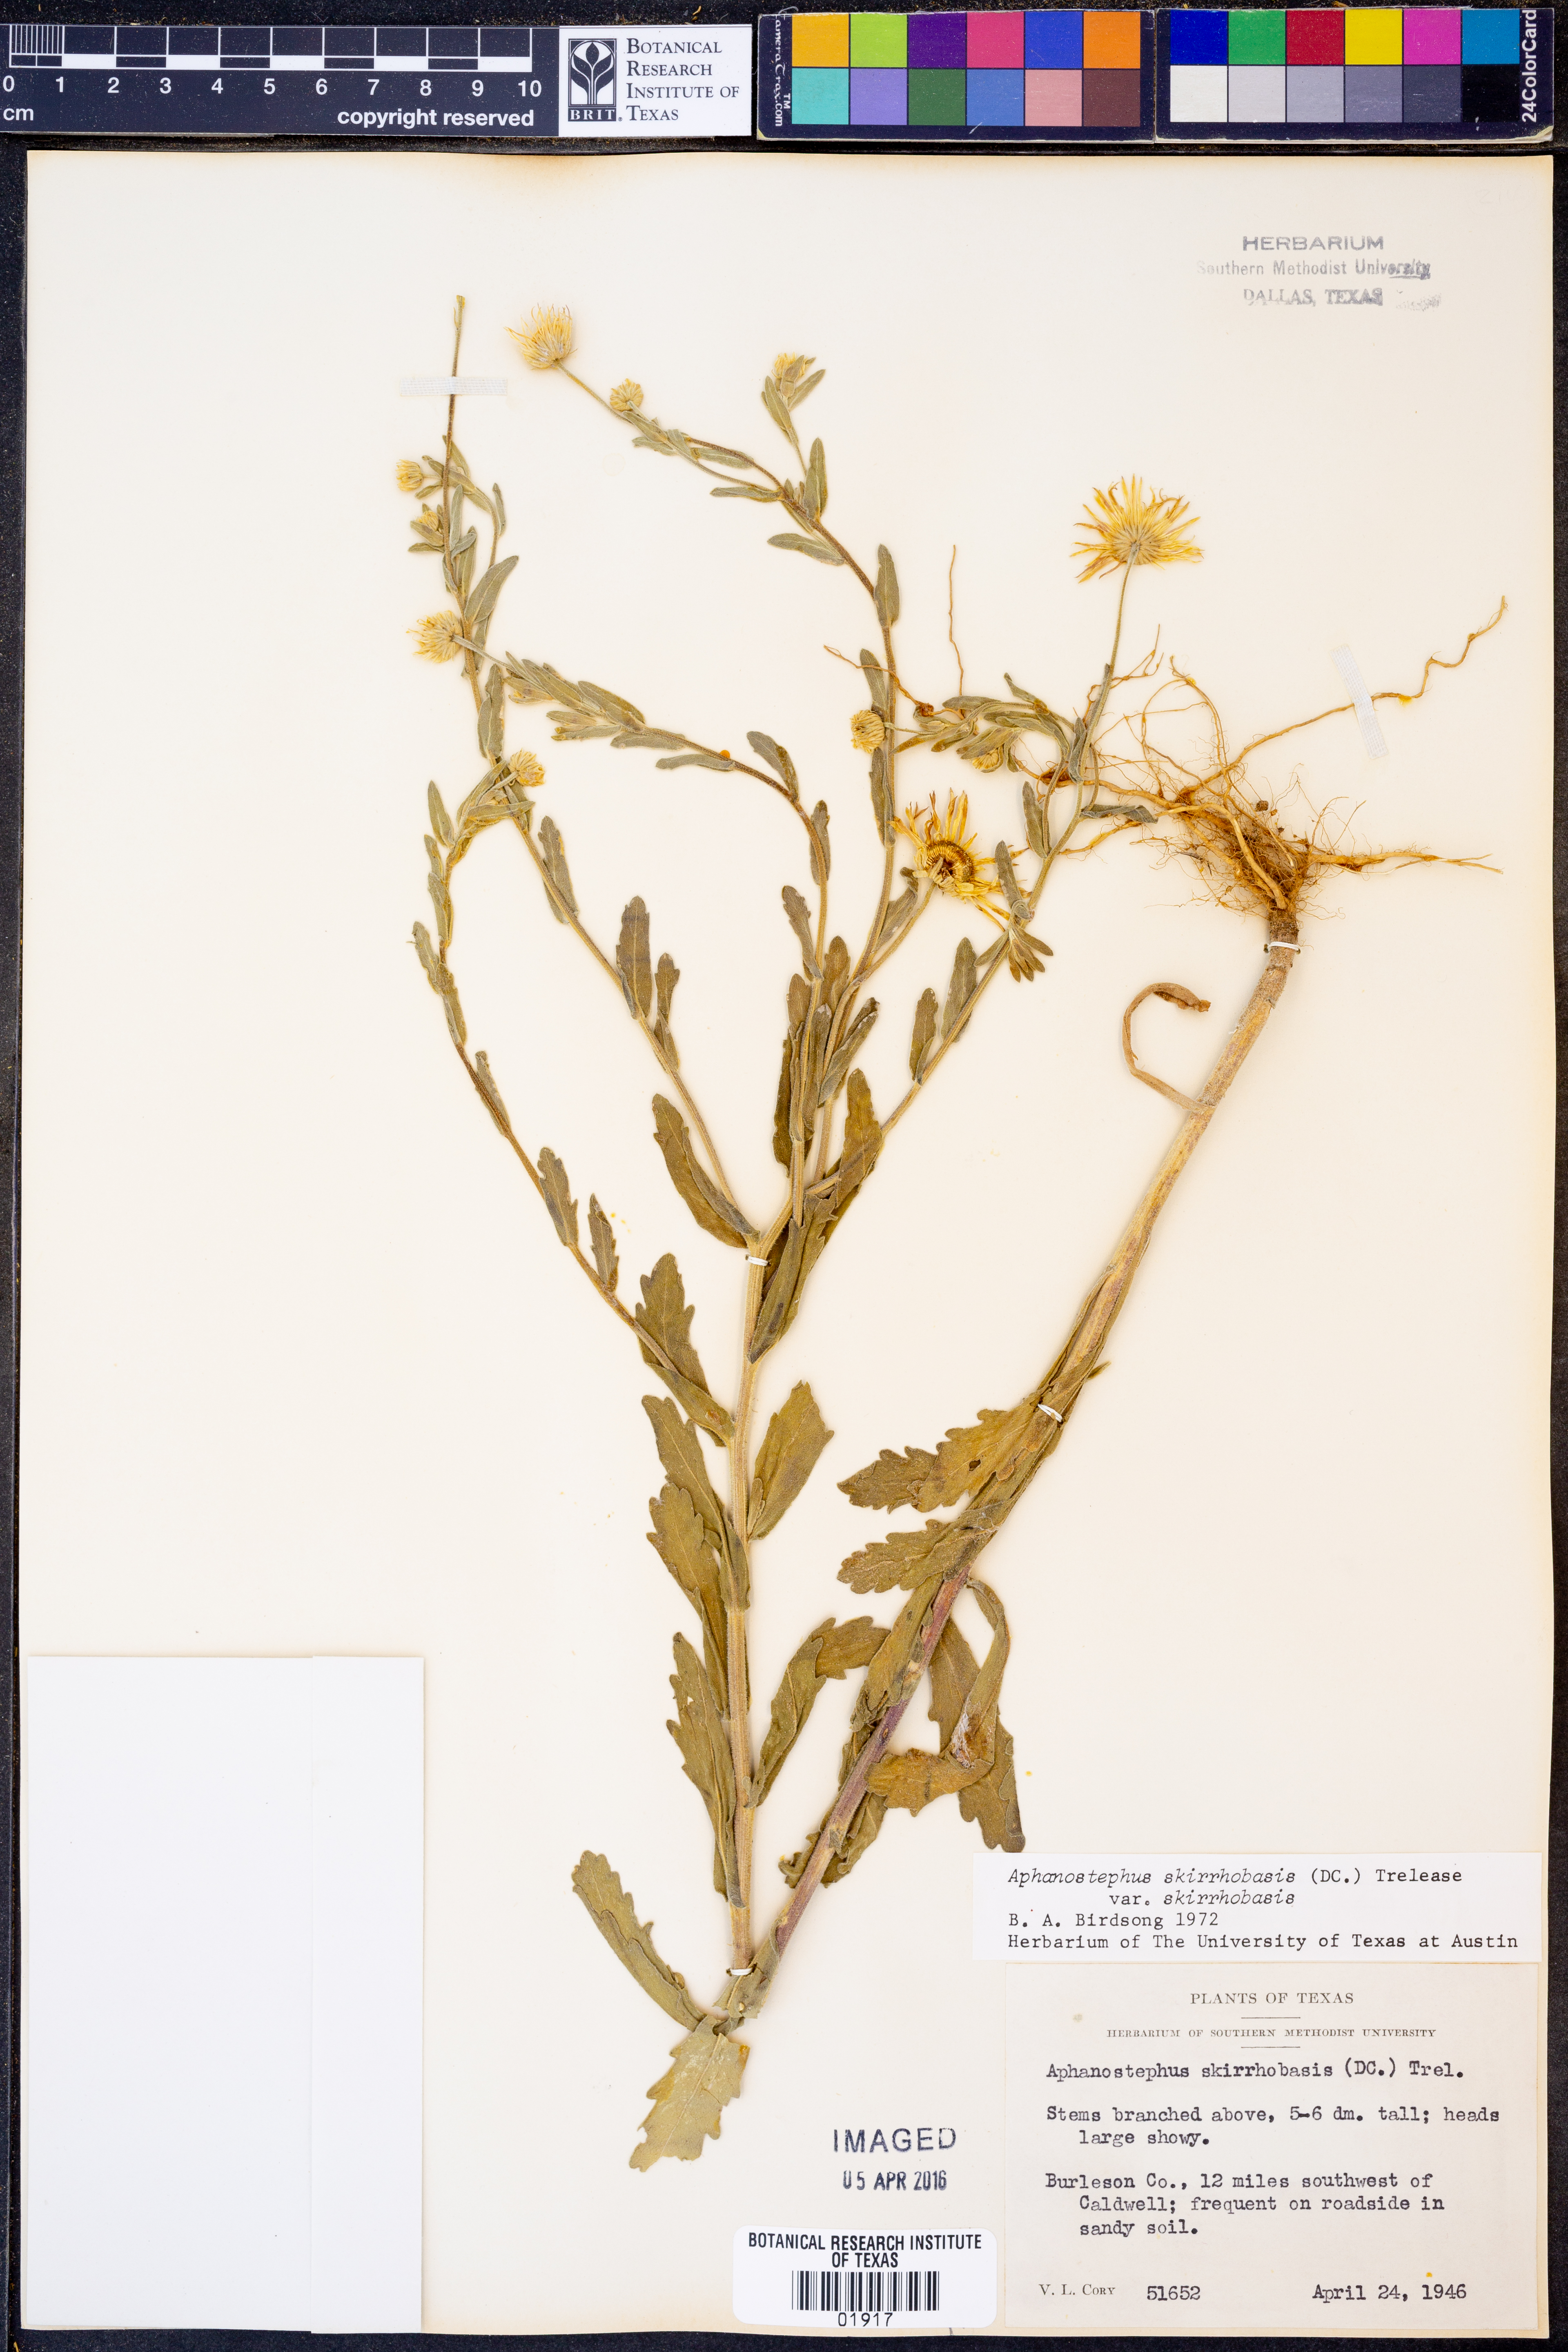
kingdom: Plantae
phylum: Tracheophyta
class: Magnoliopsida
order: Asterales
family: Asteraceae
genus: Aphanostephus
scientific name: Aphanostephus skirrhobasis
